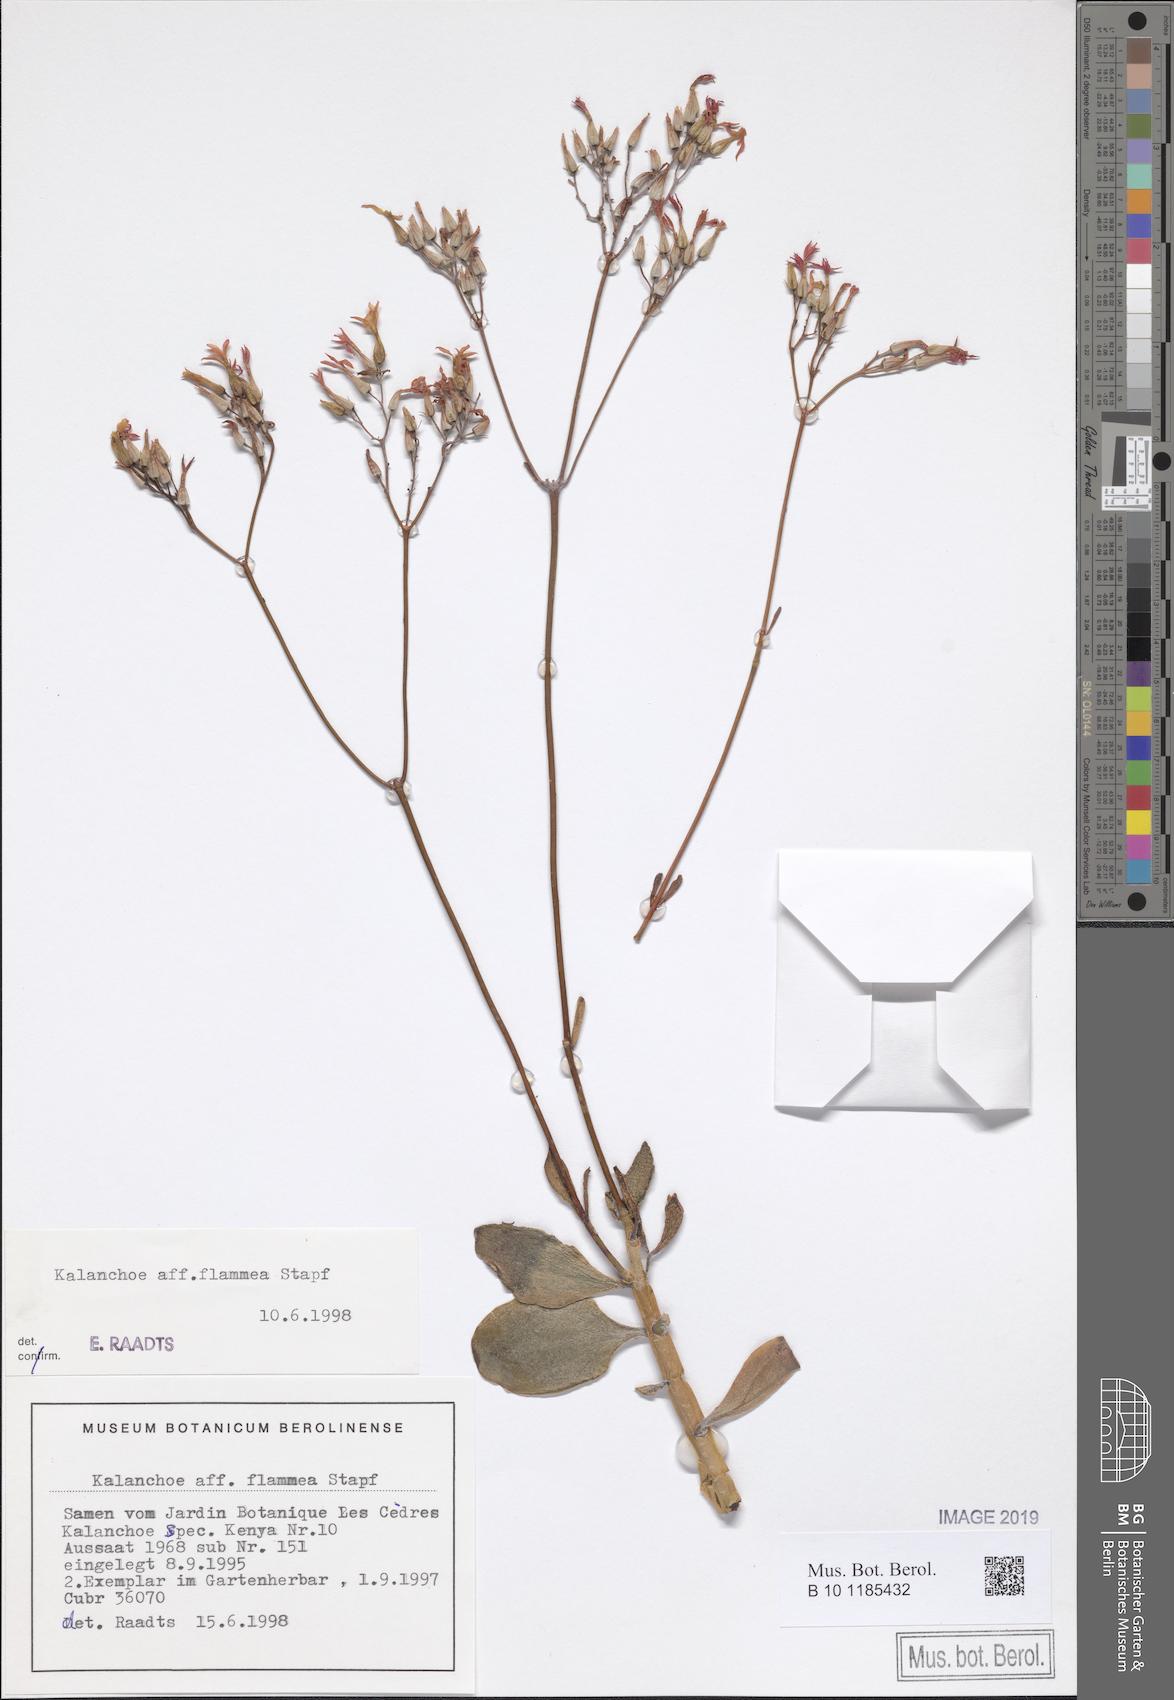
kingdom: Plantae
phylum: Tracheophyta
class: Magnoliopsida
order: Saxifragales
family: Crassulaceae
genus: Kalanchoe
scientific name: Kalanchoe glaucescens
